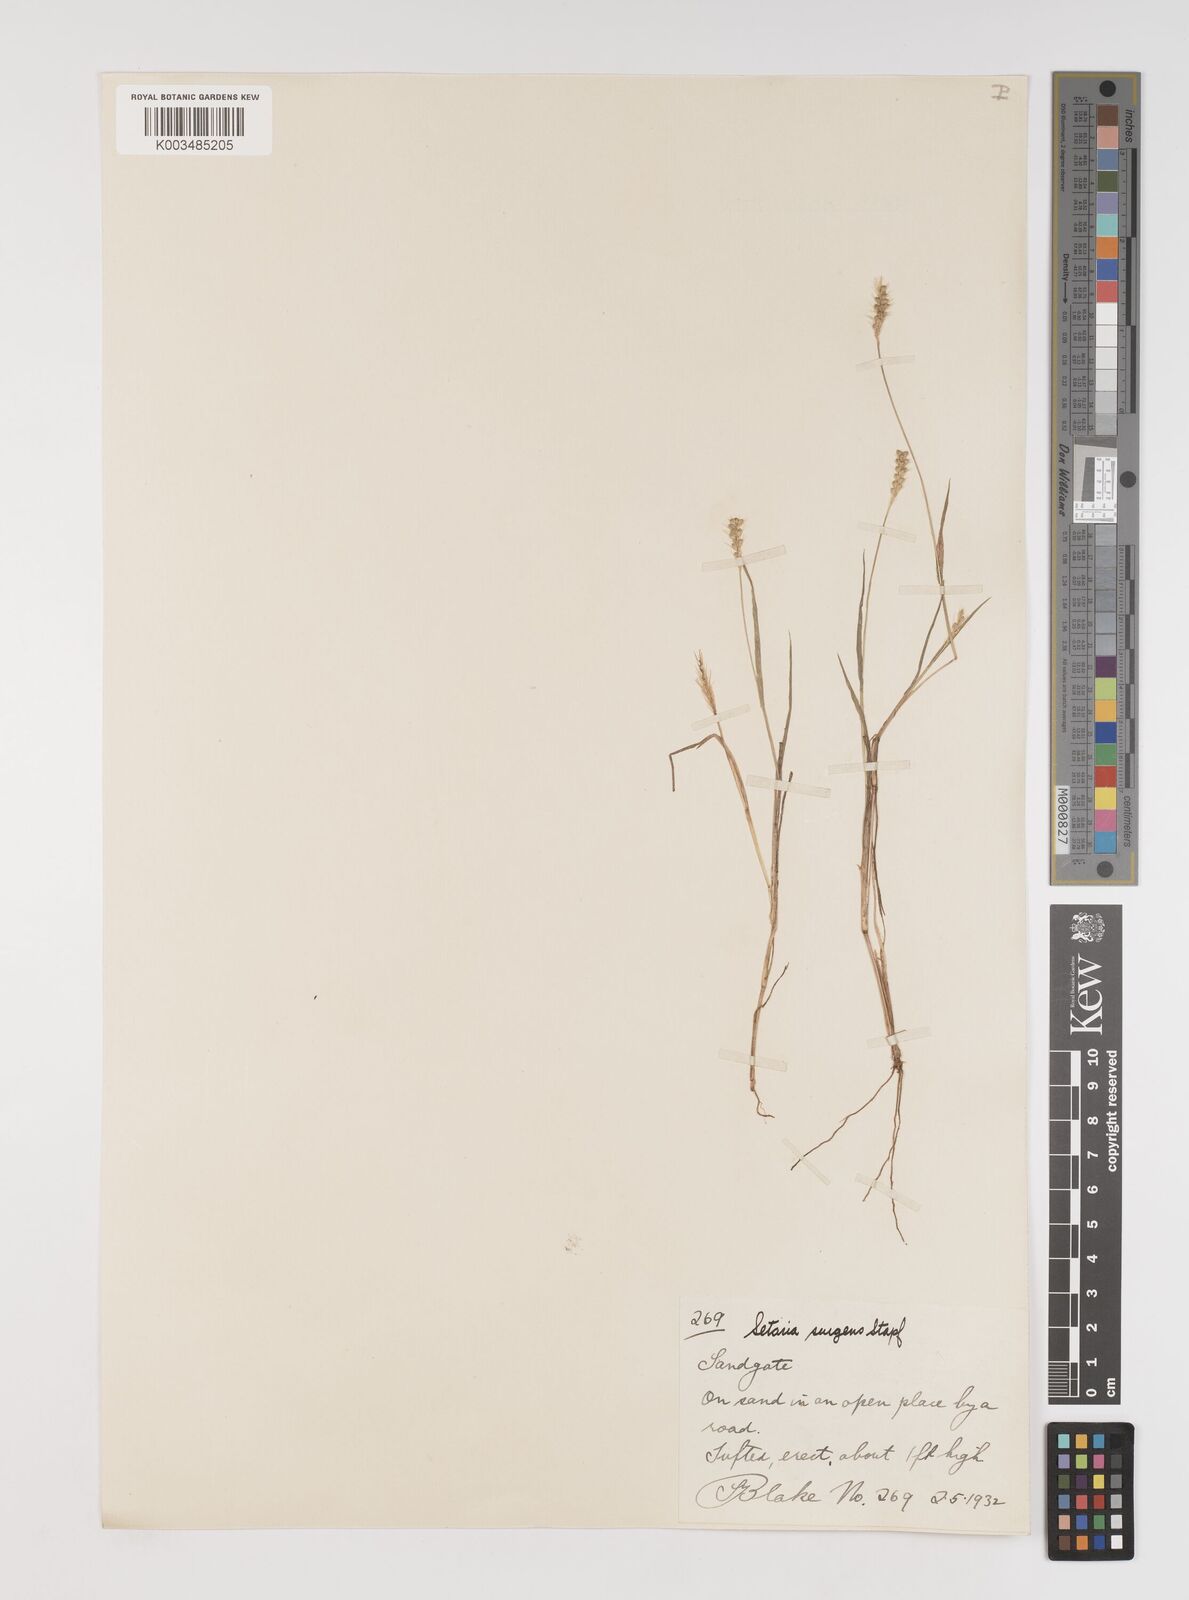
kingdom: Plantae
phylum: Tracheophyta
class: Liliopsida
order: Poales
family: Poaceae
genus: Setaria
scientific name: Setaria apiculata
